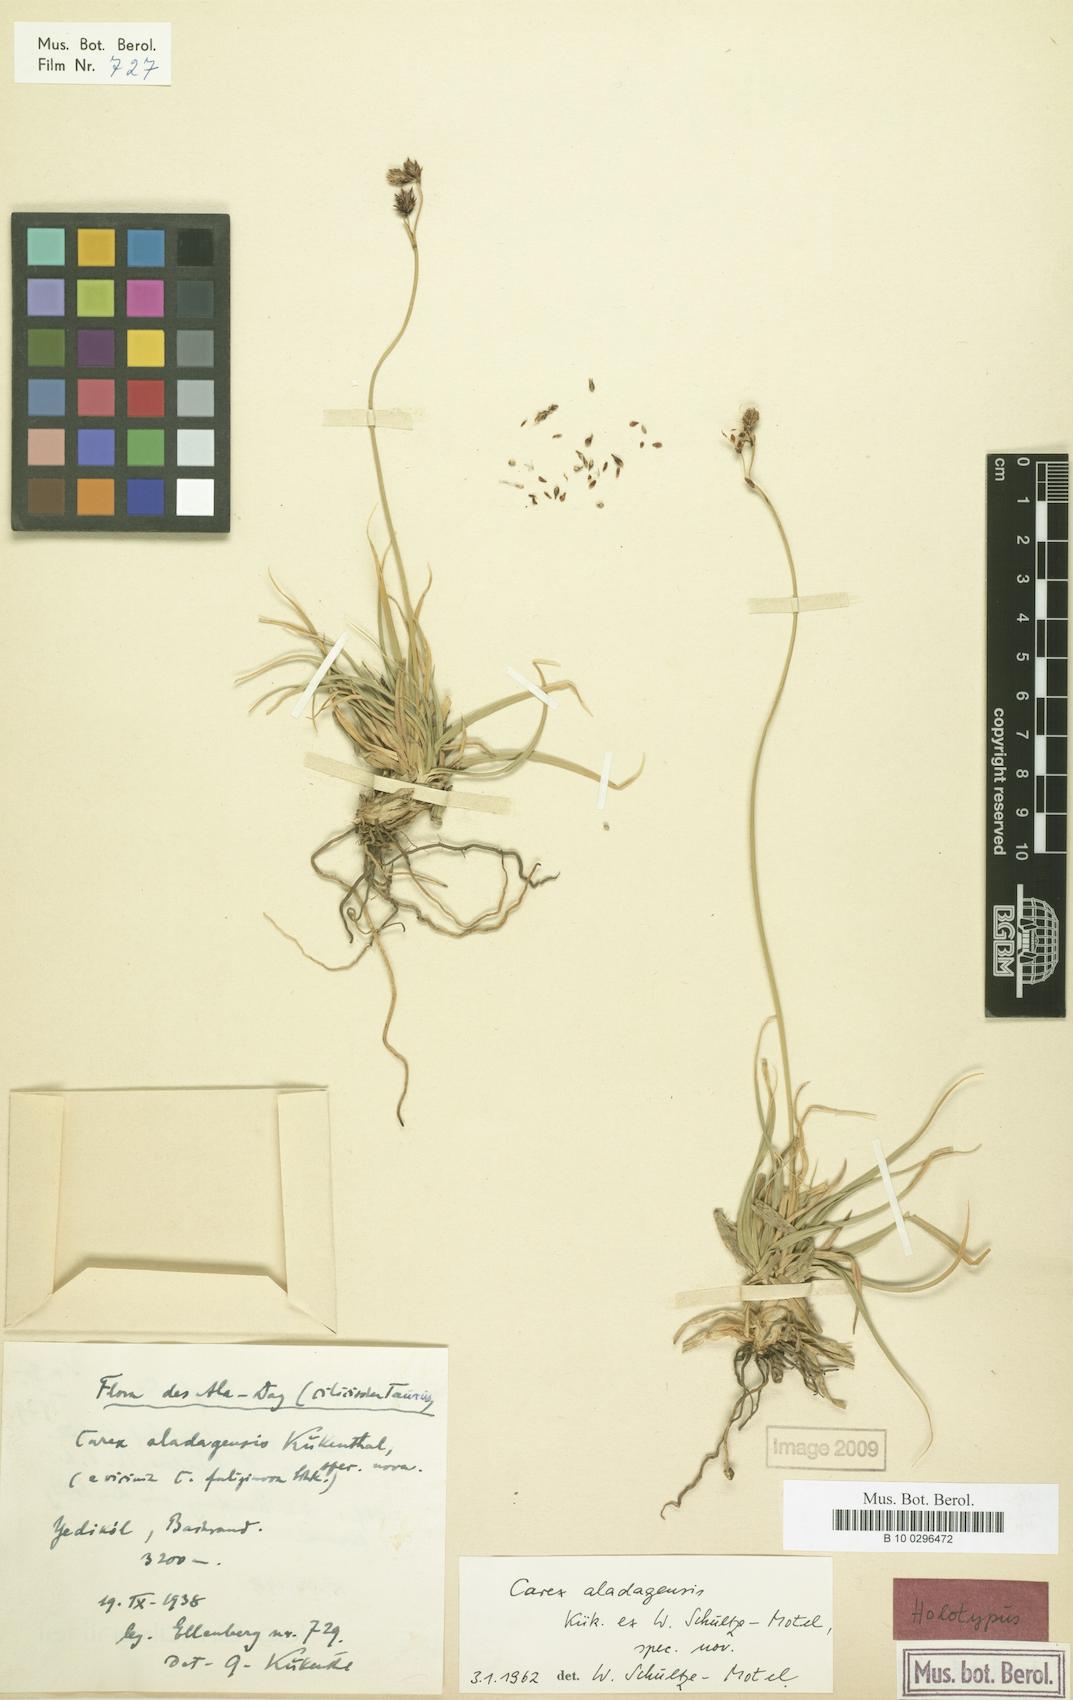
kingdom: Plantae
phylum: Tracheophyta
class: Liliopsida
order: Poales
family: Cyperaceae
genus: Carex
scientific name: Carex aladagensis
